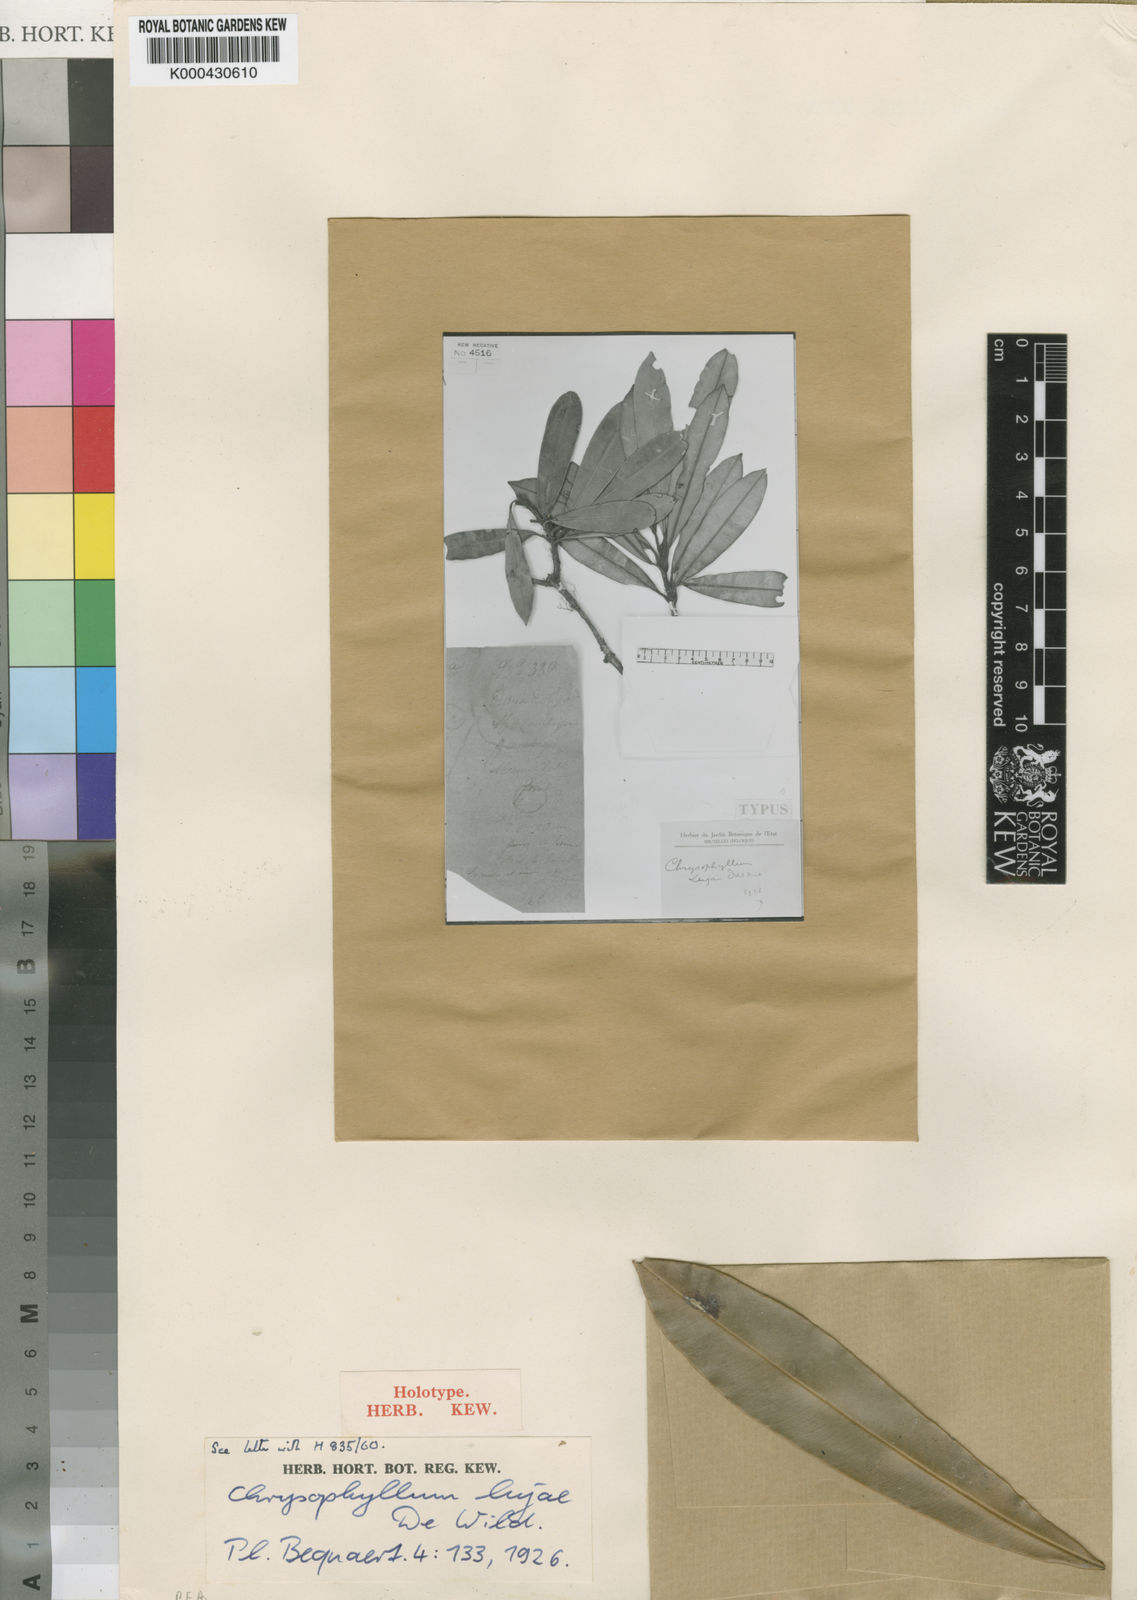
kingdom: Plantae
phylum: Tracheophyta
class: Magnoliopsida
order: Ericales
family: Sapotaceae
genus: Englerophytum
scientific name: Englerophytum magalismontanum
